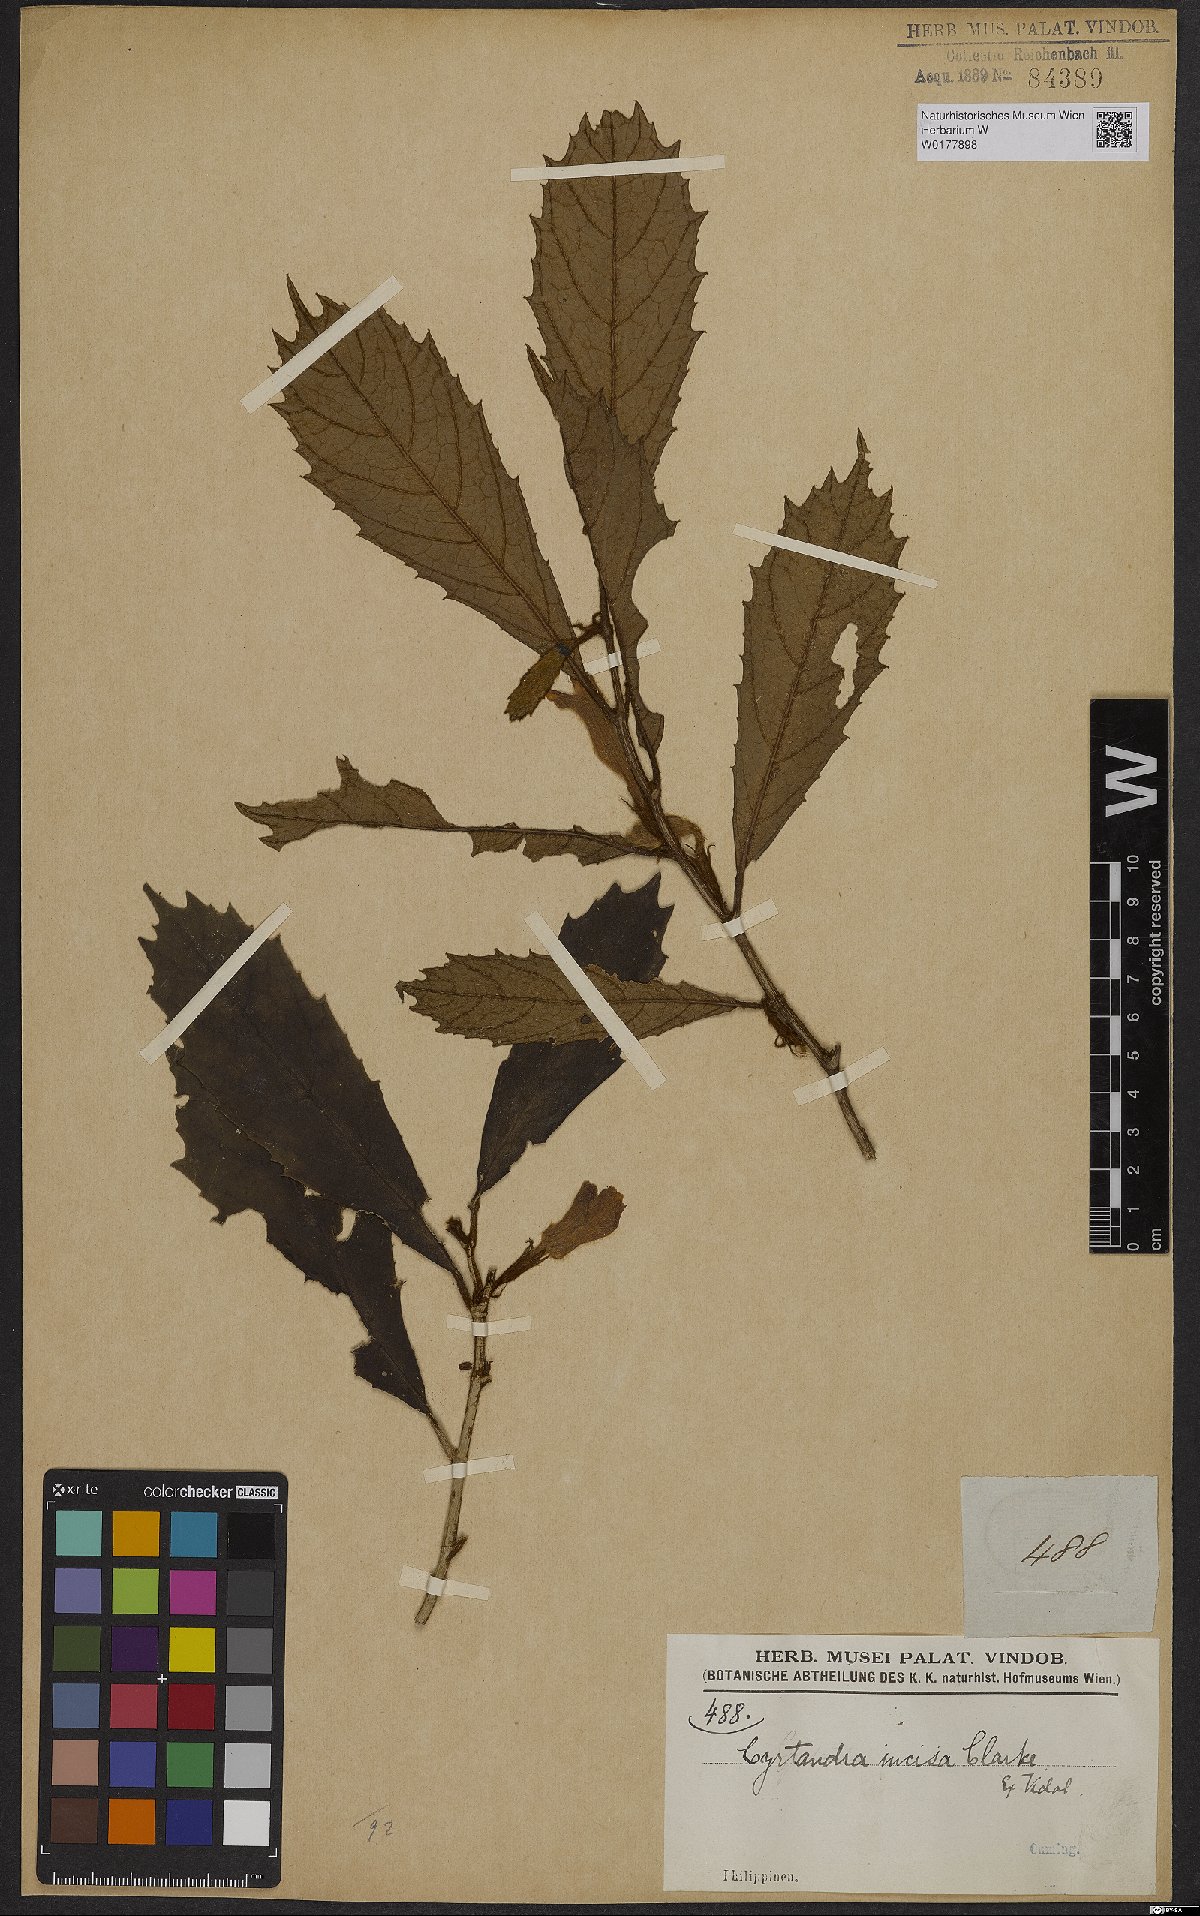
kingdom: Plantae
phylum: Tracheophyta
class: Magnoliopsida
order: Lamiales
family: Gesneriaceae
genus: Cyrtandra
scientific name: Cyrtandra incisa
